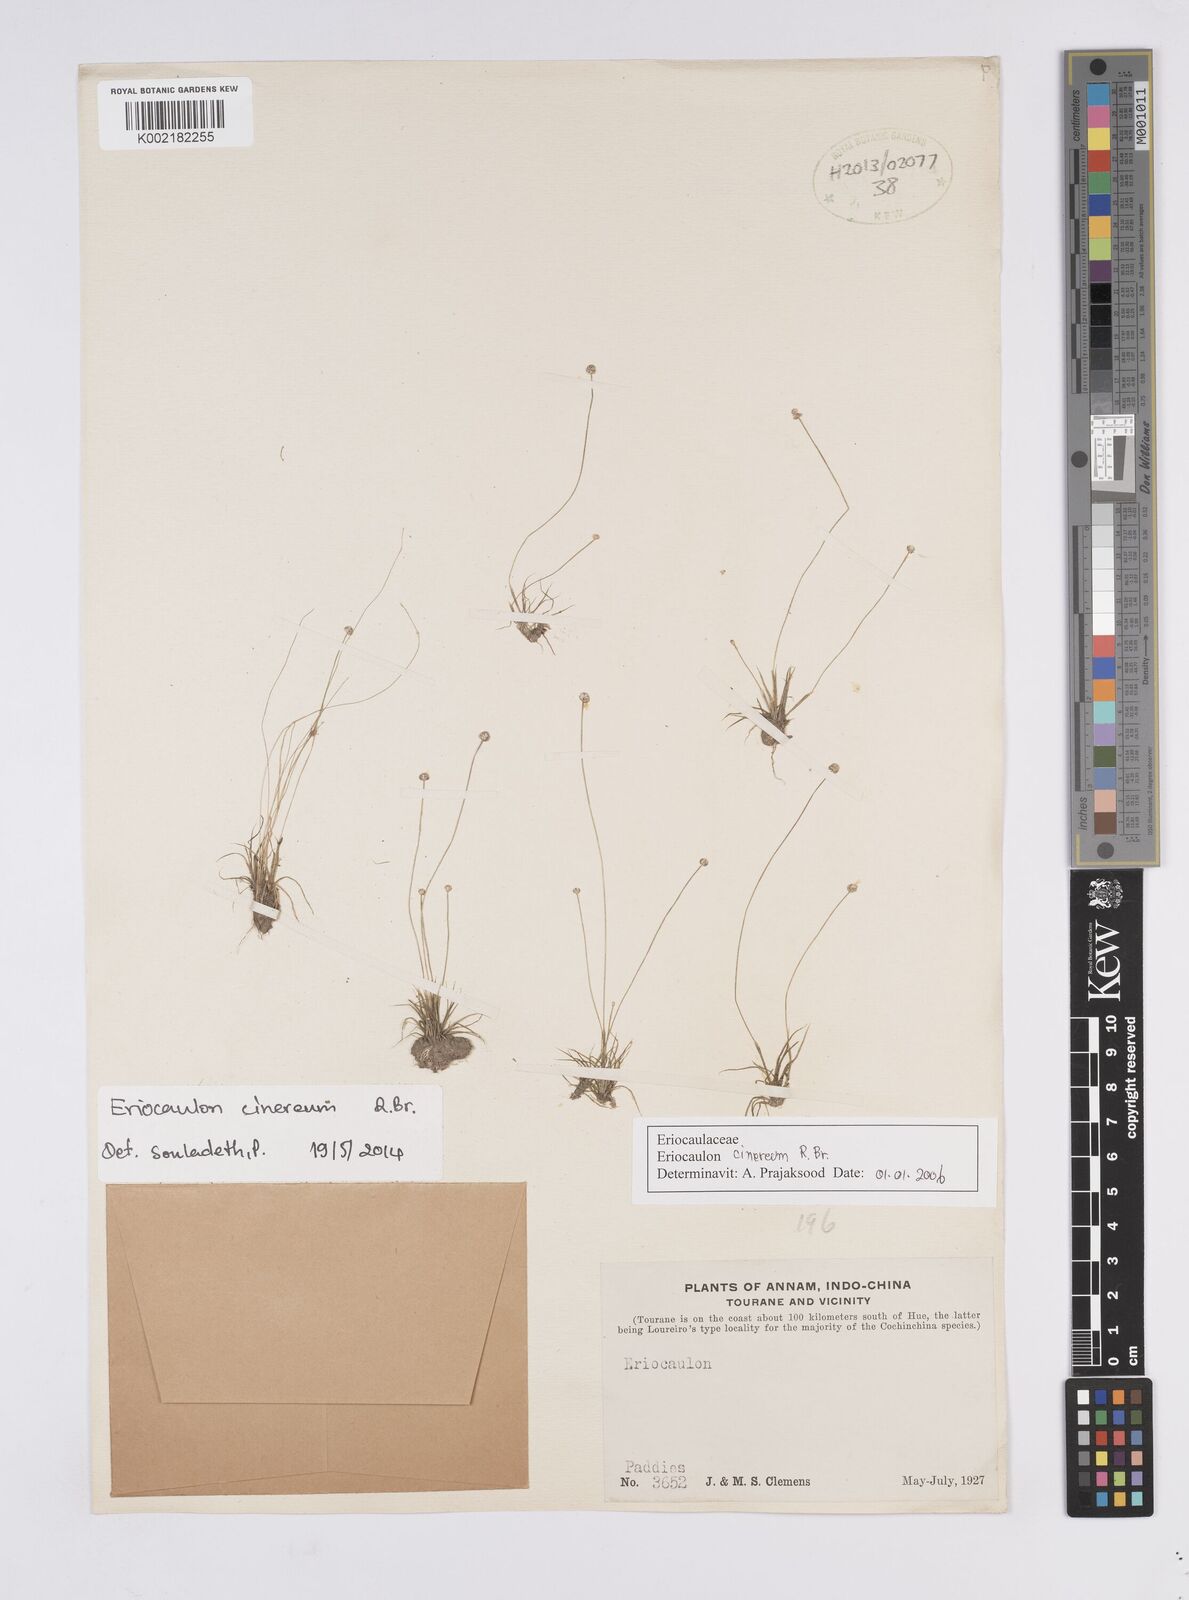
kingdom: Plantae
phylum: Tracheophyta
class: Liliopsida
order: Poales
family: Eriocaulaceae
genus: Eriocaulon
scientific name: Eriocaulon cinereum
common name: Ashy pipewort
